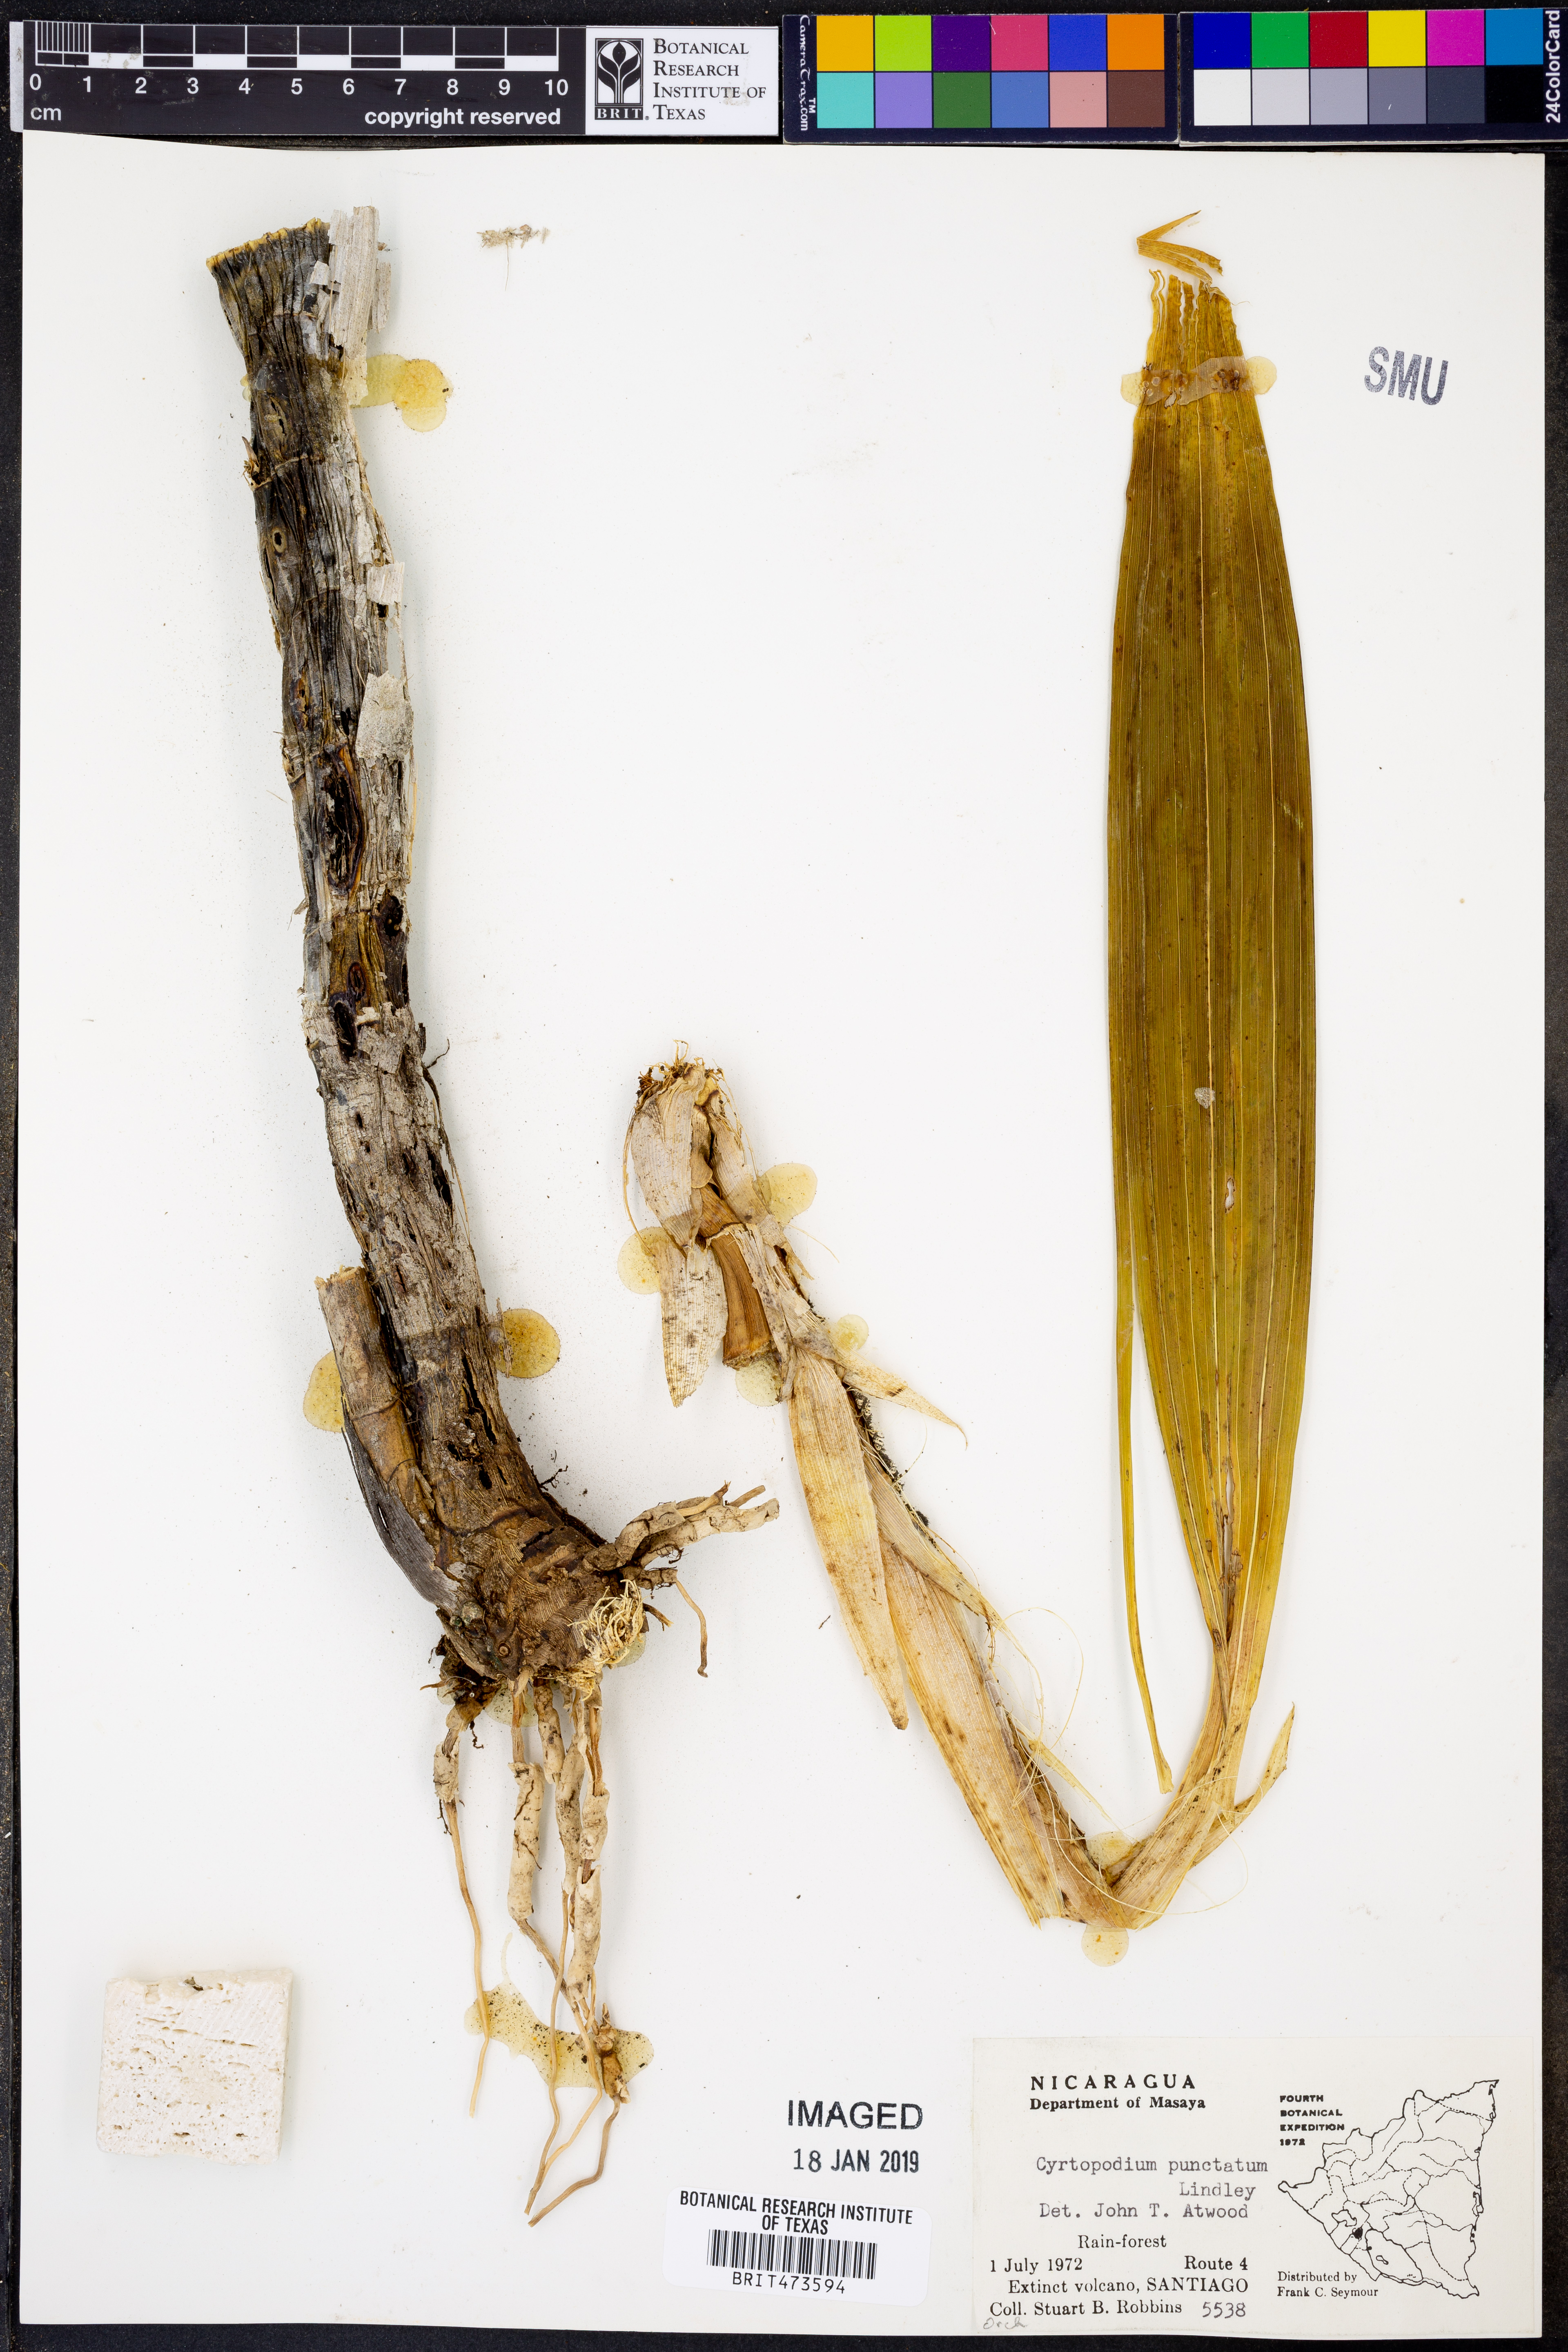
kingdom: Plantae
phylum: Tracheophyta
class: Liliopsida
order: Asparagales
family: Orchidaceae
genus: Cyrtopodium
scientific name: Cyrtopodium punctatum
